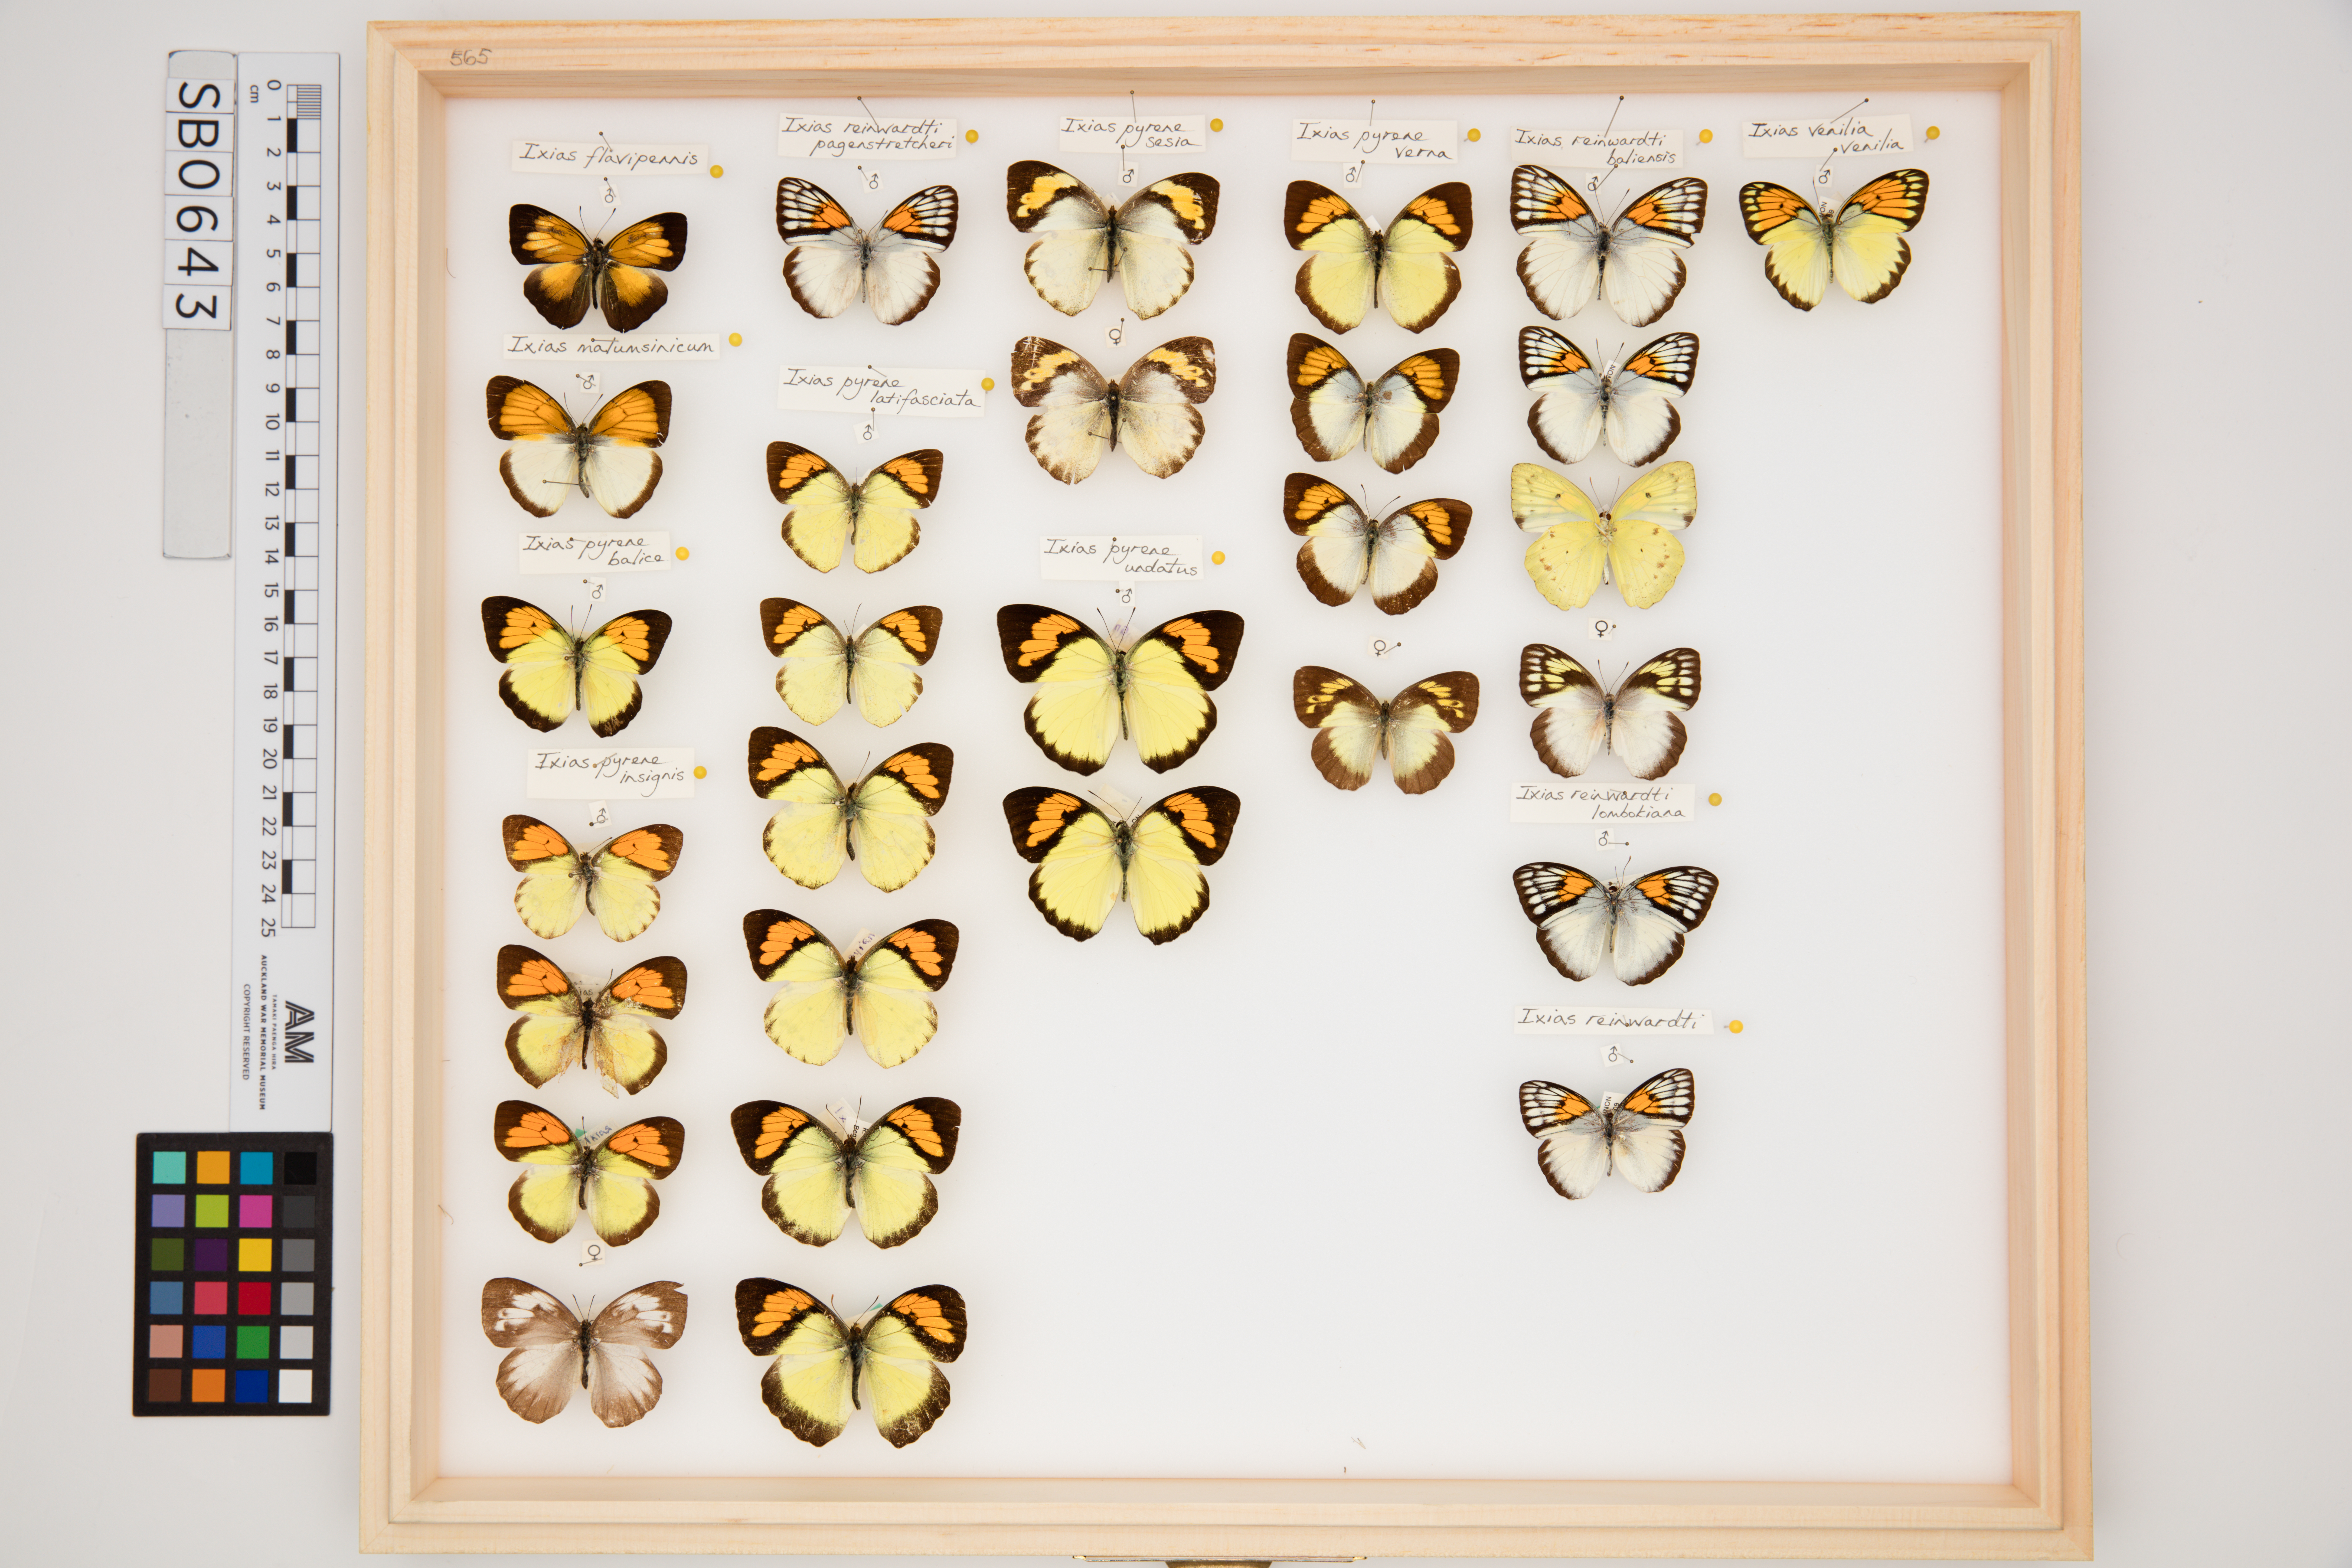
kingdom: Animalia
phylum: Arthropoda
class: Insecta
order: Lepidoptera
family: Pieridae
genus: Ixias
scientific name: Ixias malumsinicum
